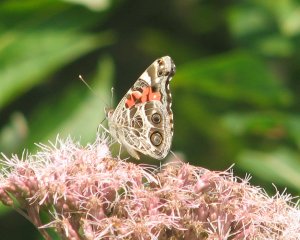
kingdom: Animalia
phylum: Arthropoda
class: Insecta
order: Lepidoptera
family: Nymphalidae
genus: Vanessa
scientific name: Vanessa virginiensis
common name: American Lady
